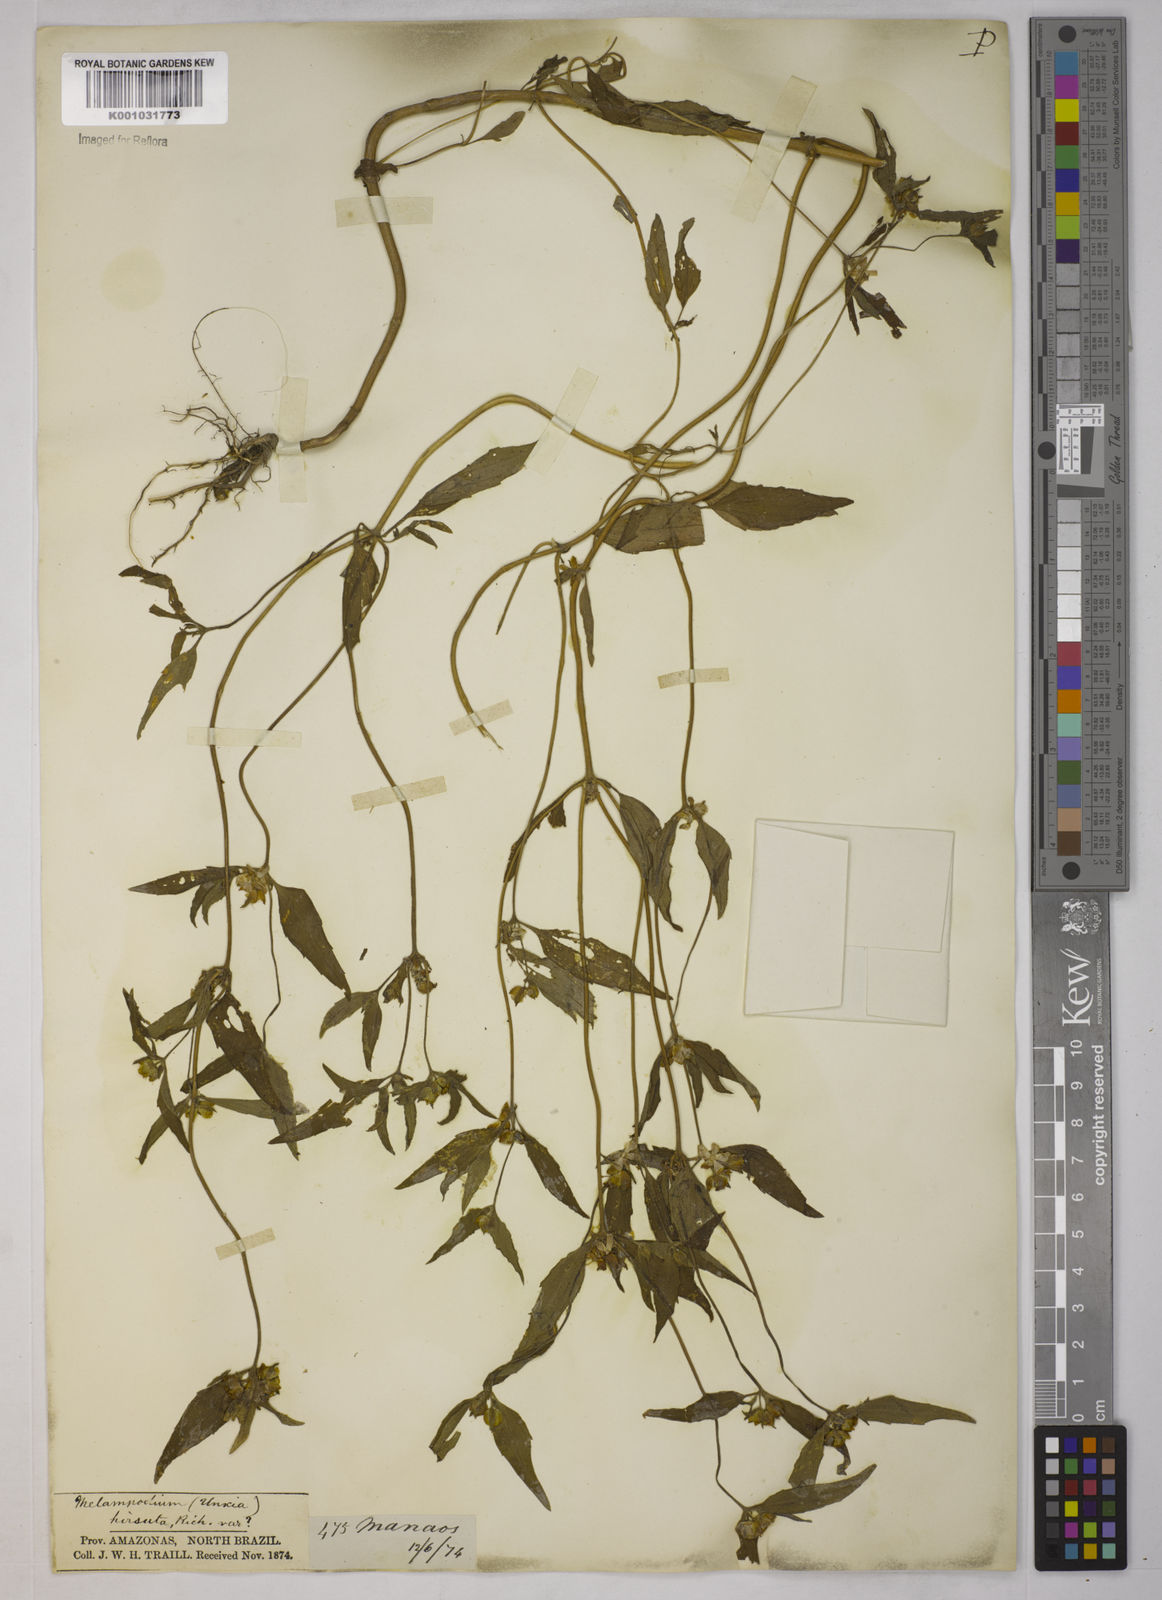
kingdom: Plantae
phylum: Tracheophyta
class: Magnoliopsida
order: Asterales
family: Asteraceae
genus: Unxia
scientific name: Unxia camphorata
